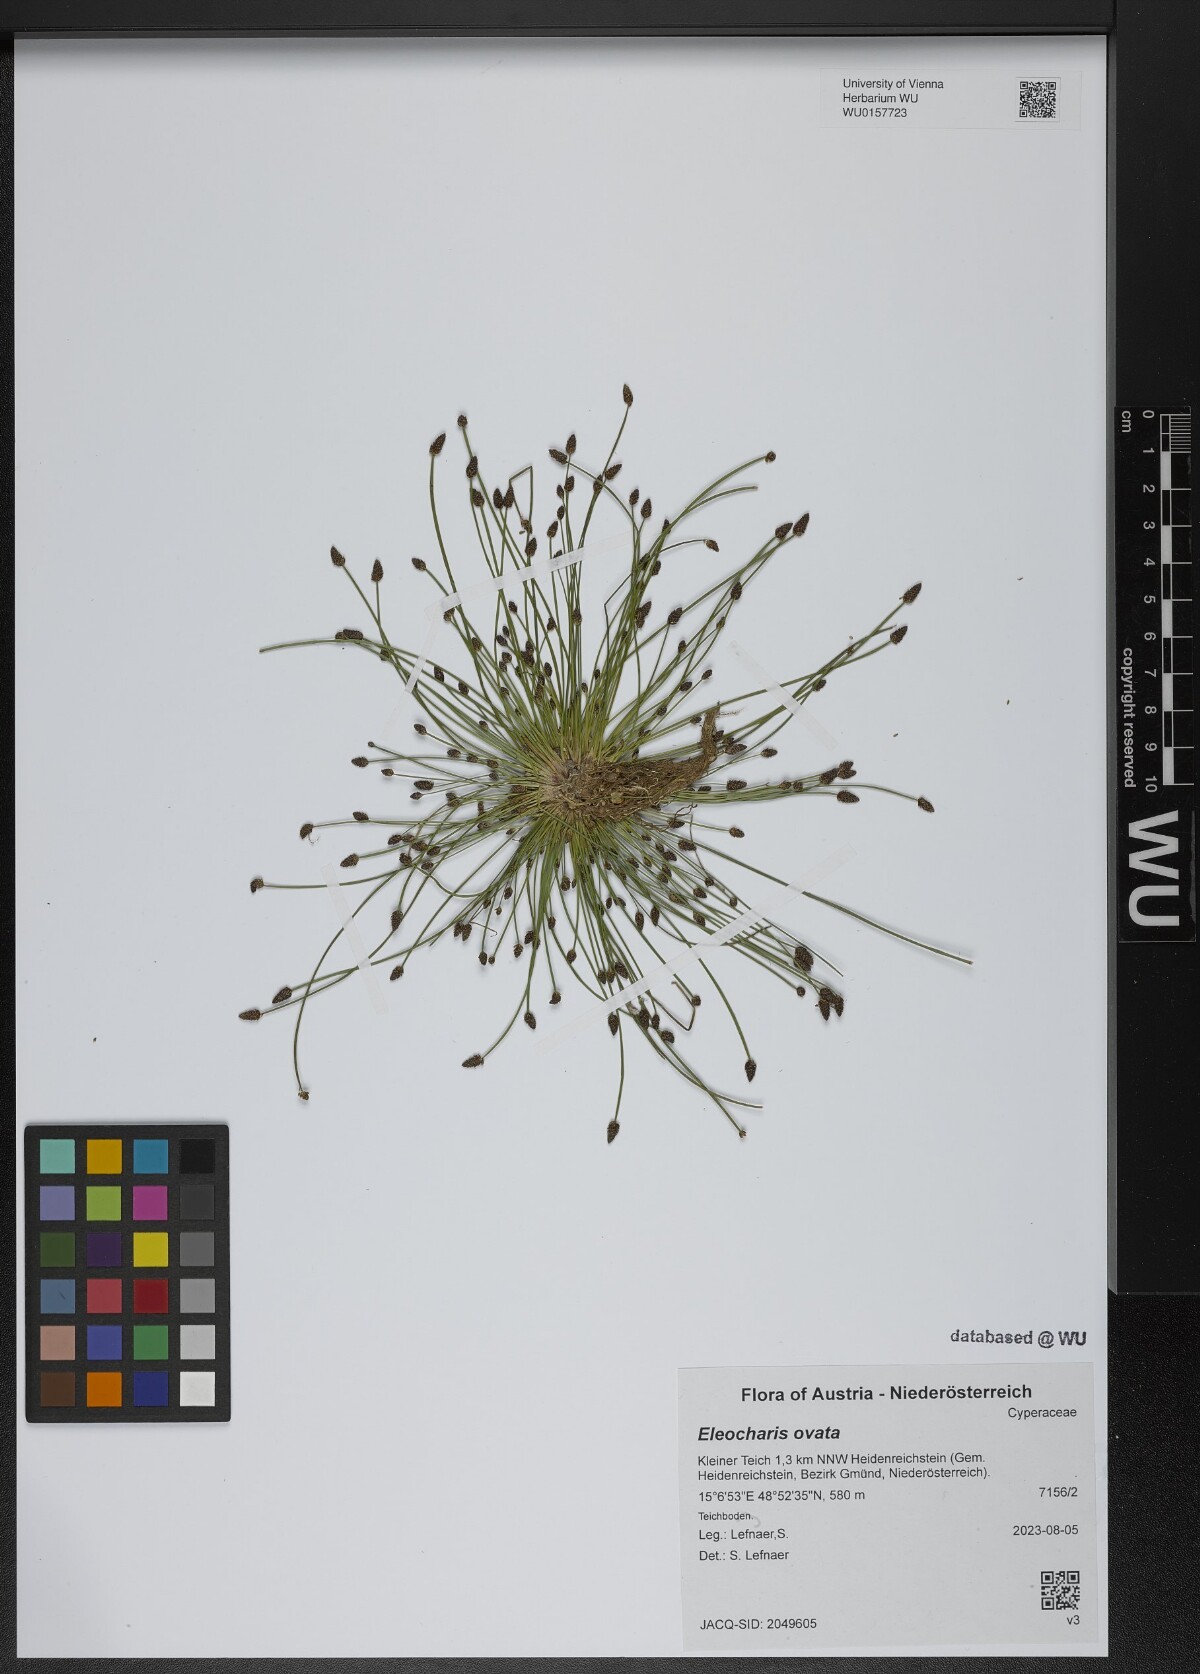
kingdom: Plantae
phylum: Tracheophyta
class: Liliopsida
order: Poales
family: Cyperaceae
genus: Eleocharis
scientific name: Eleocharis ovata
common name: Oval spike-rush
